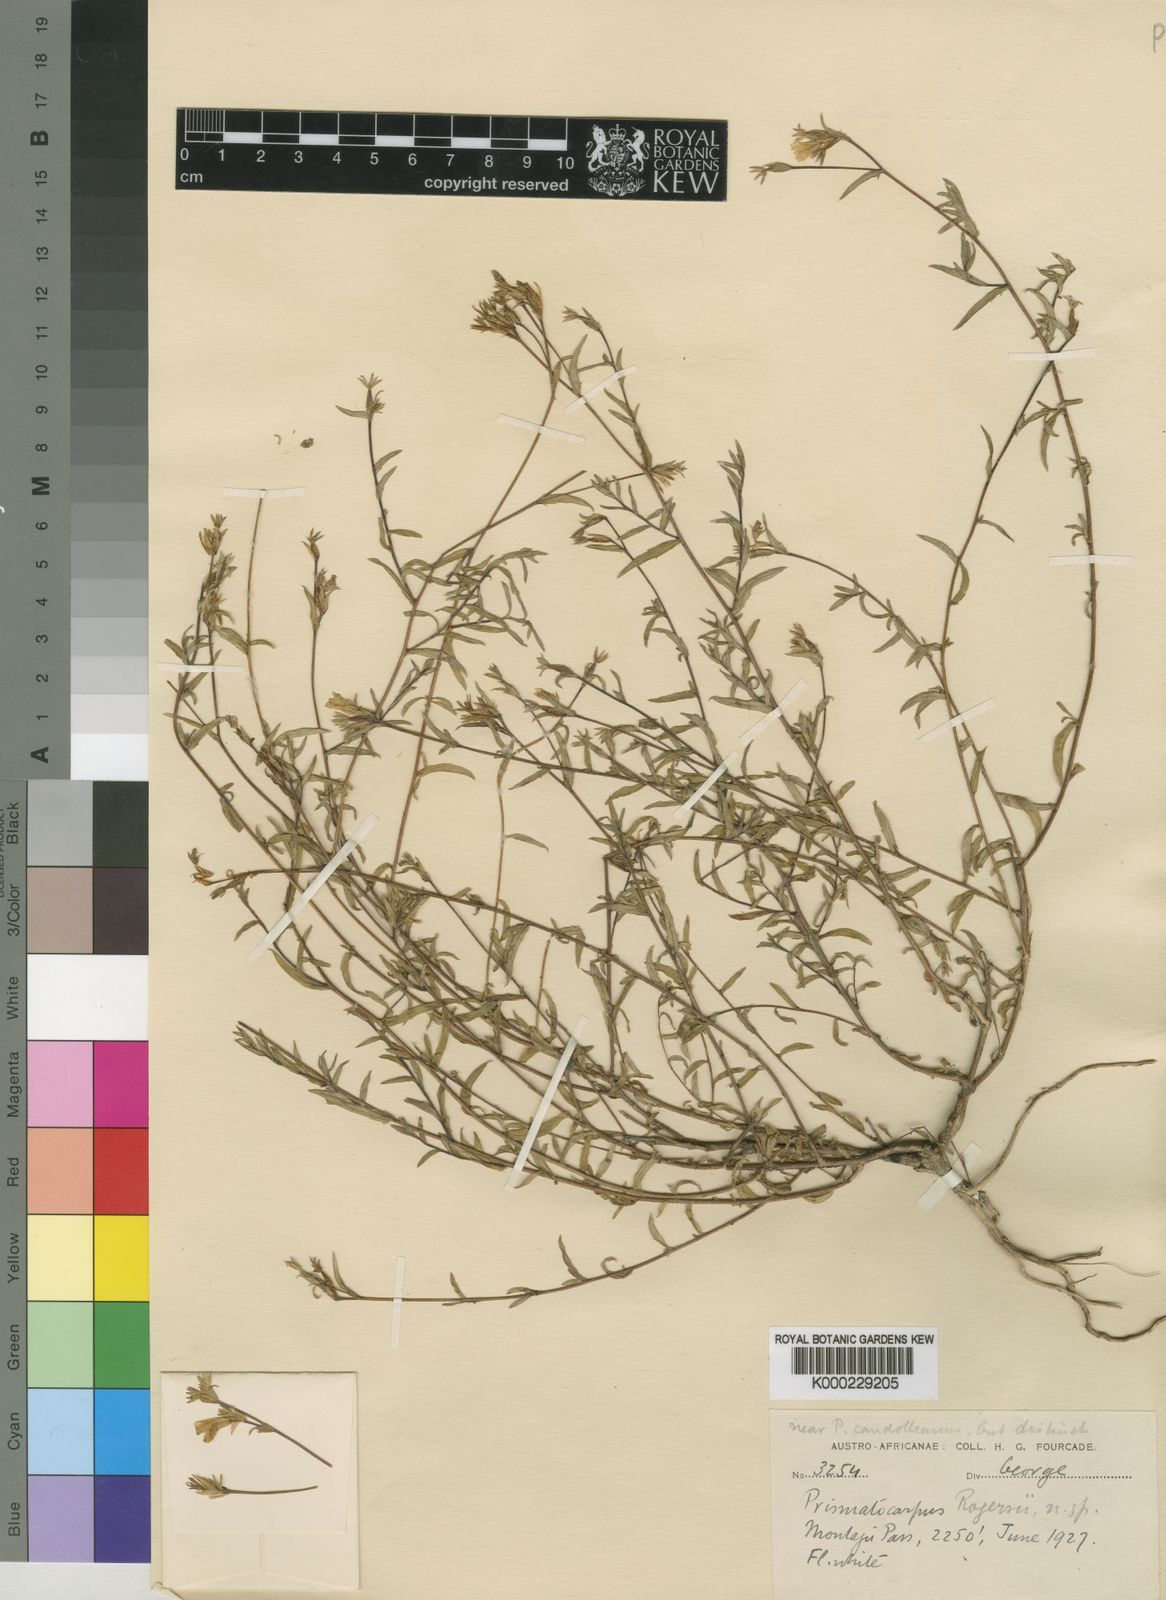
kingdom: Plantae
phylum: Tracheophyta
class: Magnoliopsida
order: Asterales
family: Campanulaceae
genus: Prismatocarpus
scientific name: Prismatocarpus rogersii
